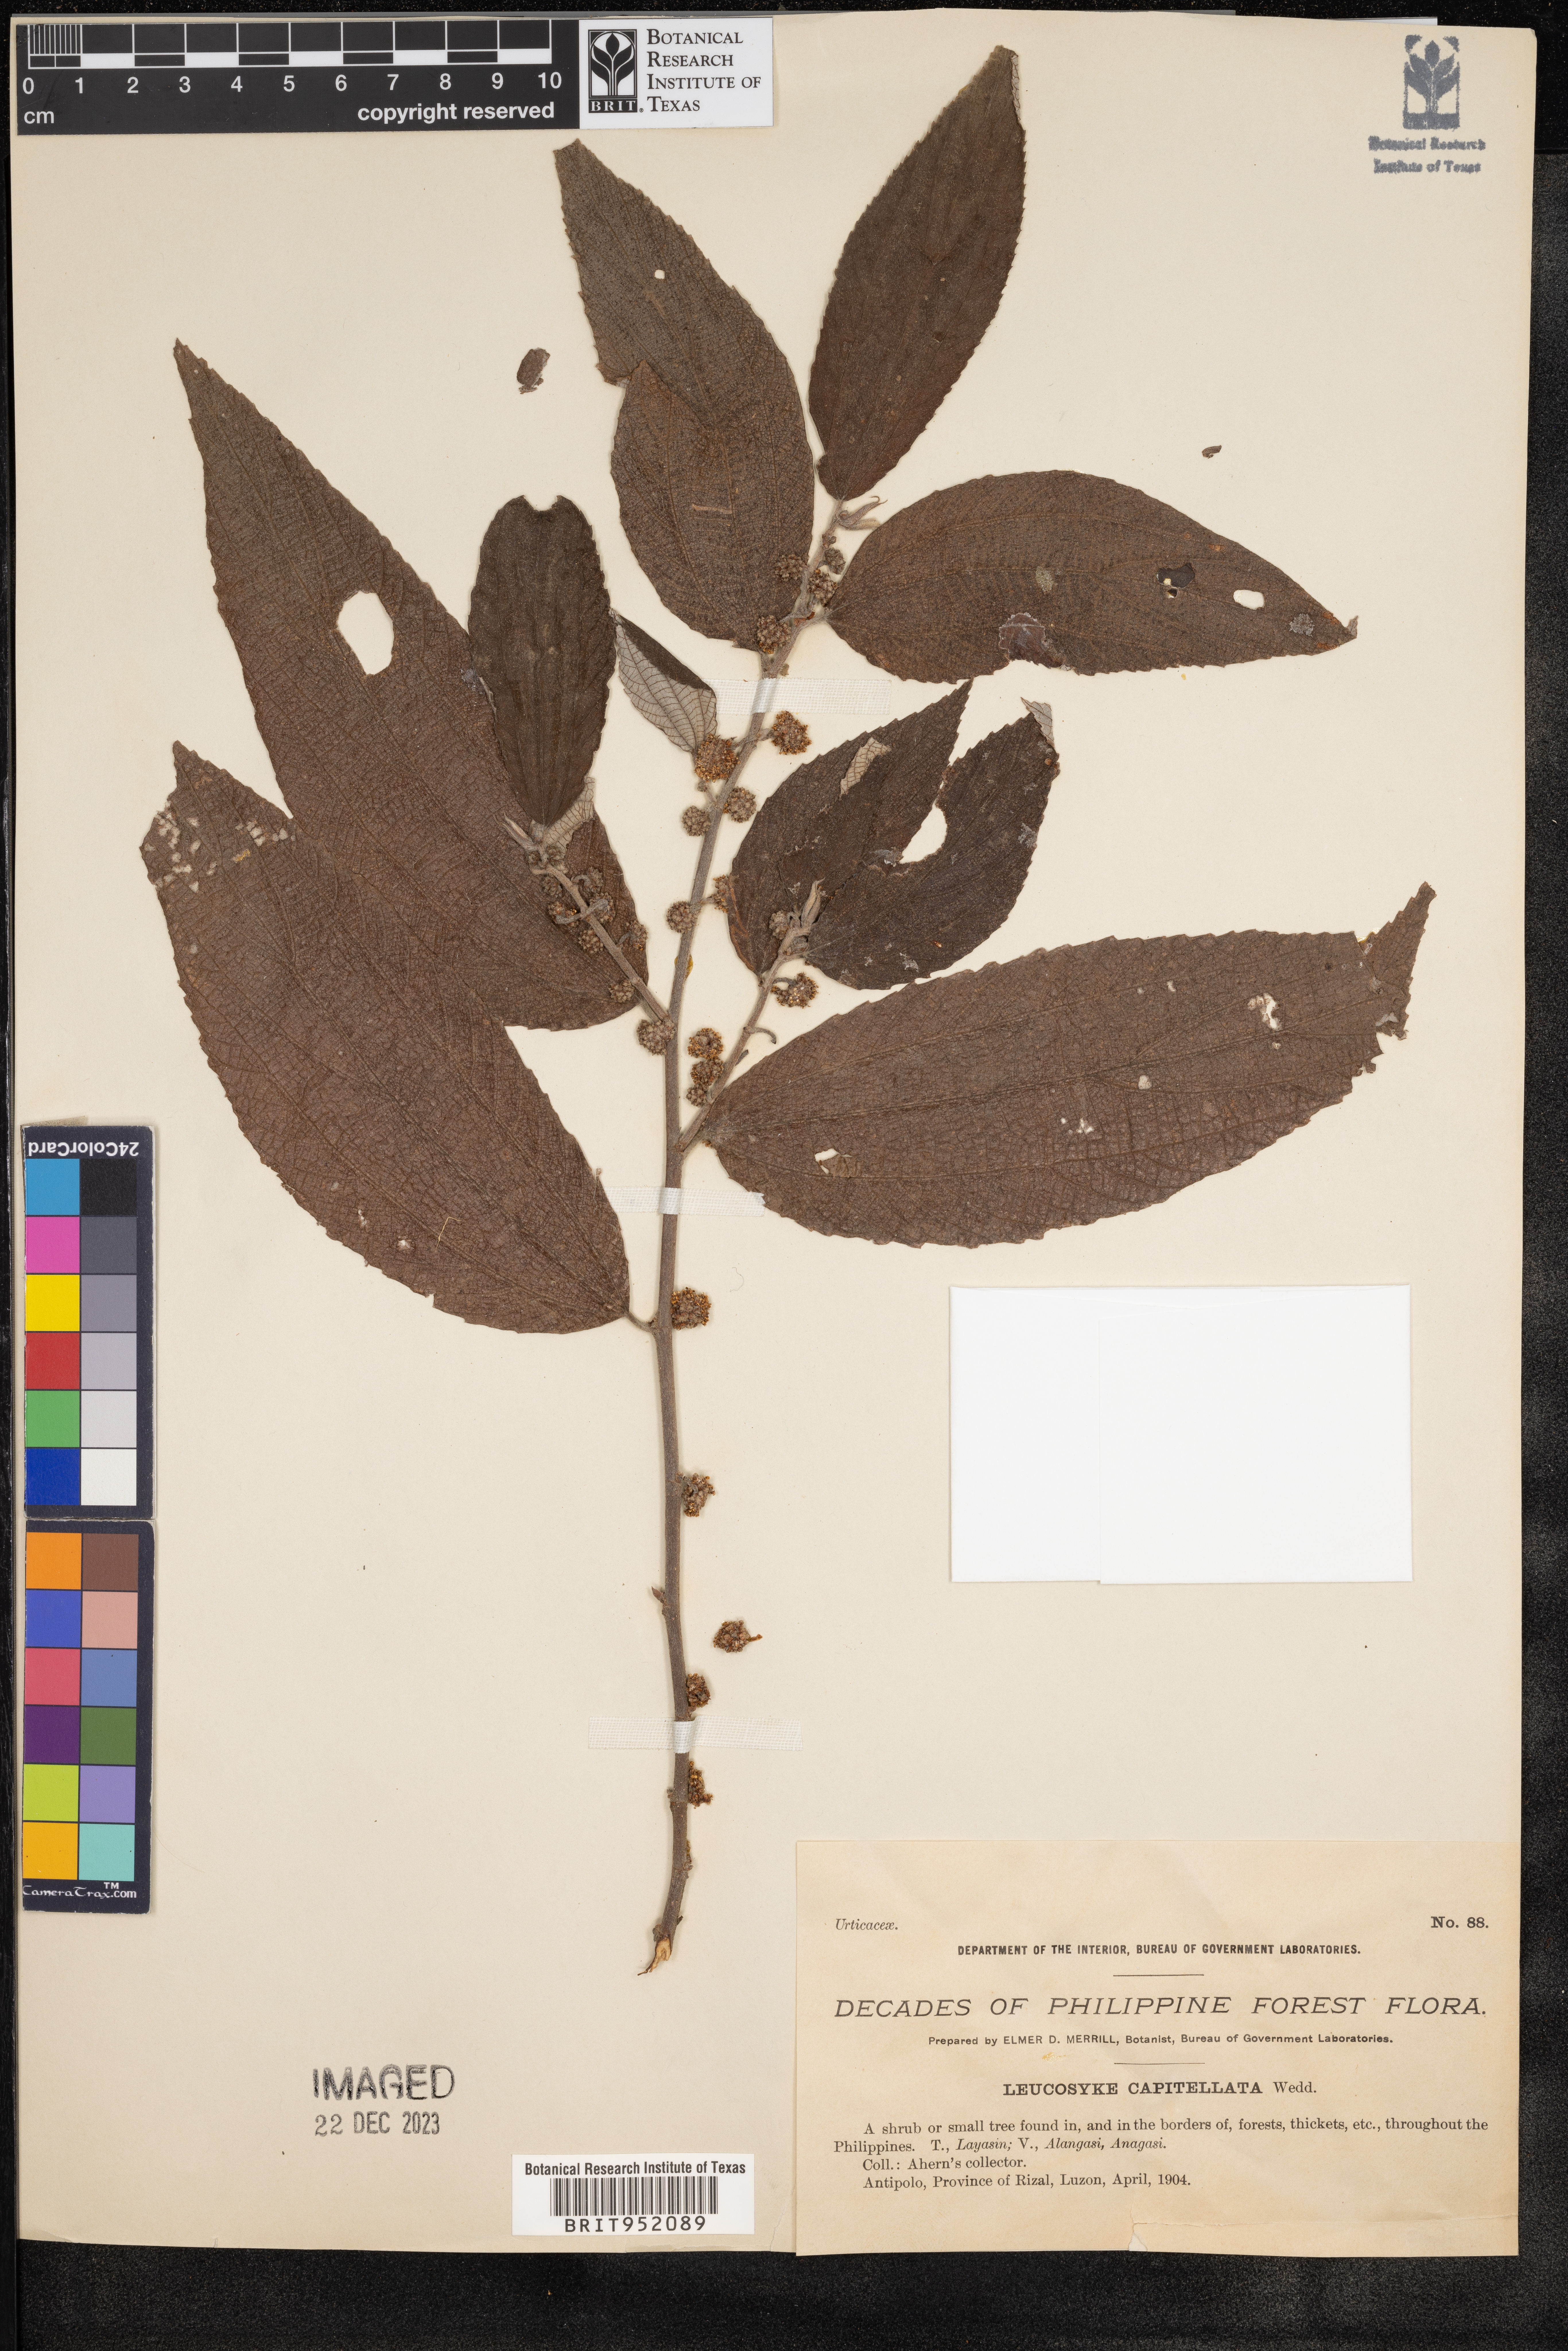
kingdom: Plantae
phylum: Tracheophyta
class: Magnoliopsida
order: Rosales
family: Urticaceae
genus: Leucosyke
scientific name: Leucosyke capitellata
